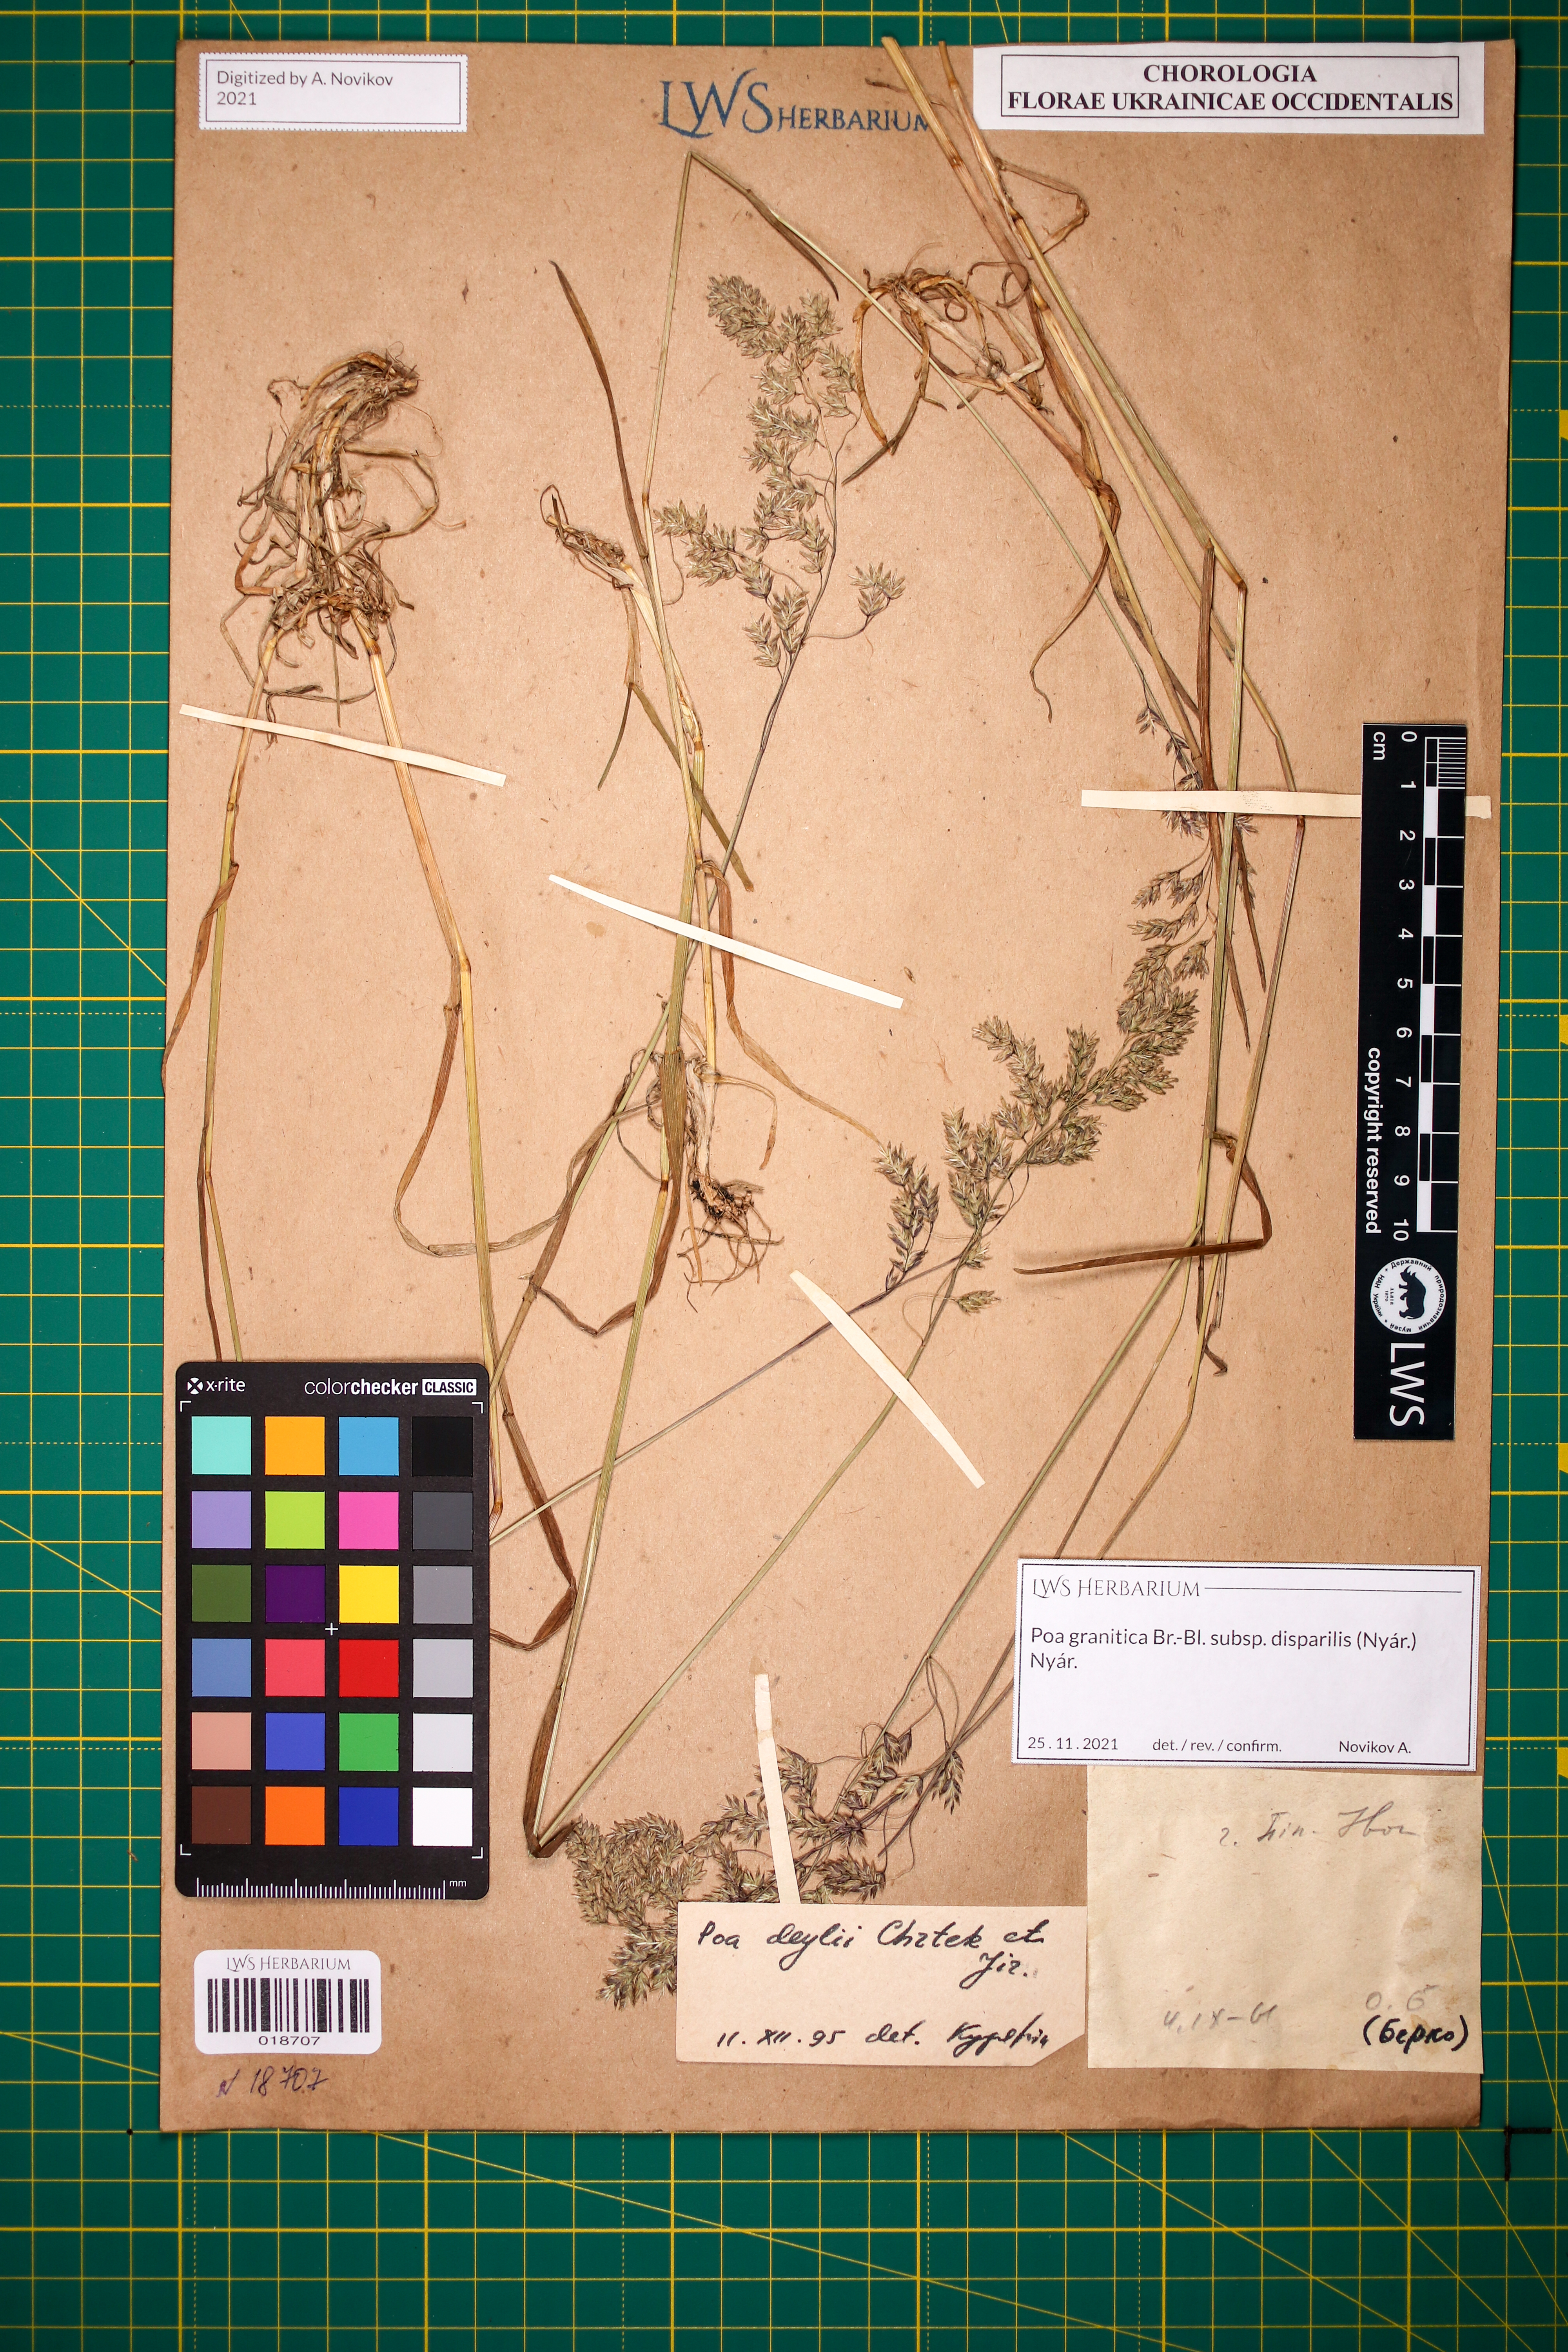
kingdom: Plantae
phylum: Tracheophyta
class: Liliopsida
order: Poales
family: Poaceae
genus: Poa
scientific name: Poa granitica
